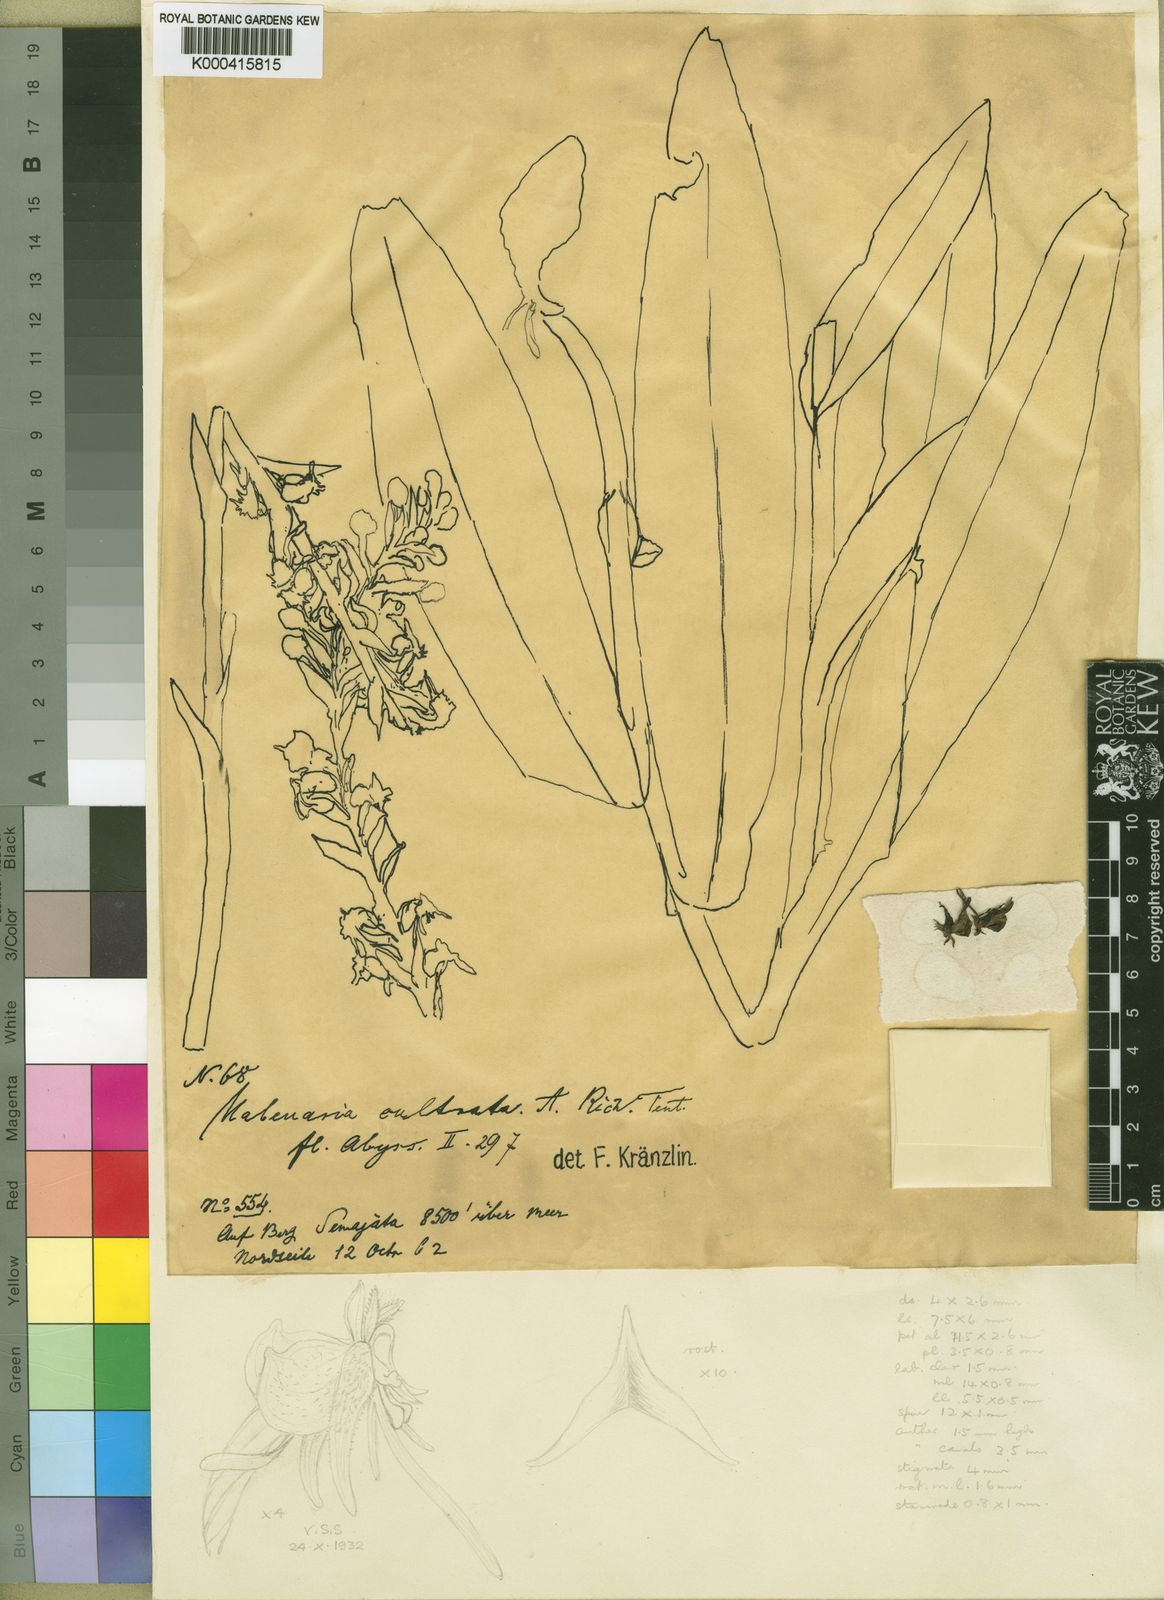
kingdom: Plantae
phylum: Tracheophyta
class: Liliopsida
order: Asparagales
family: Orchidaceae
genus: Habenaria
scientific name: Habenaria cultrata
